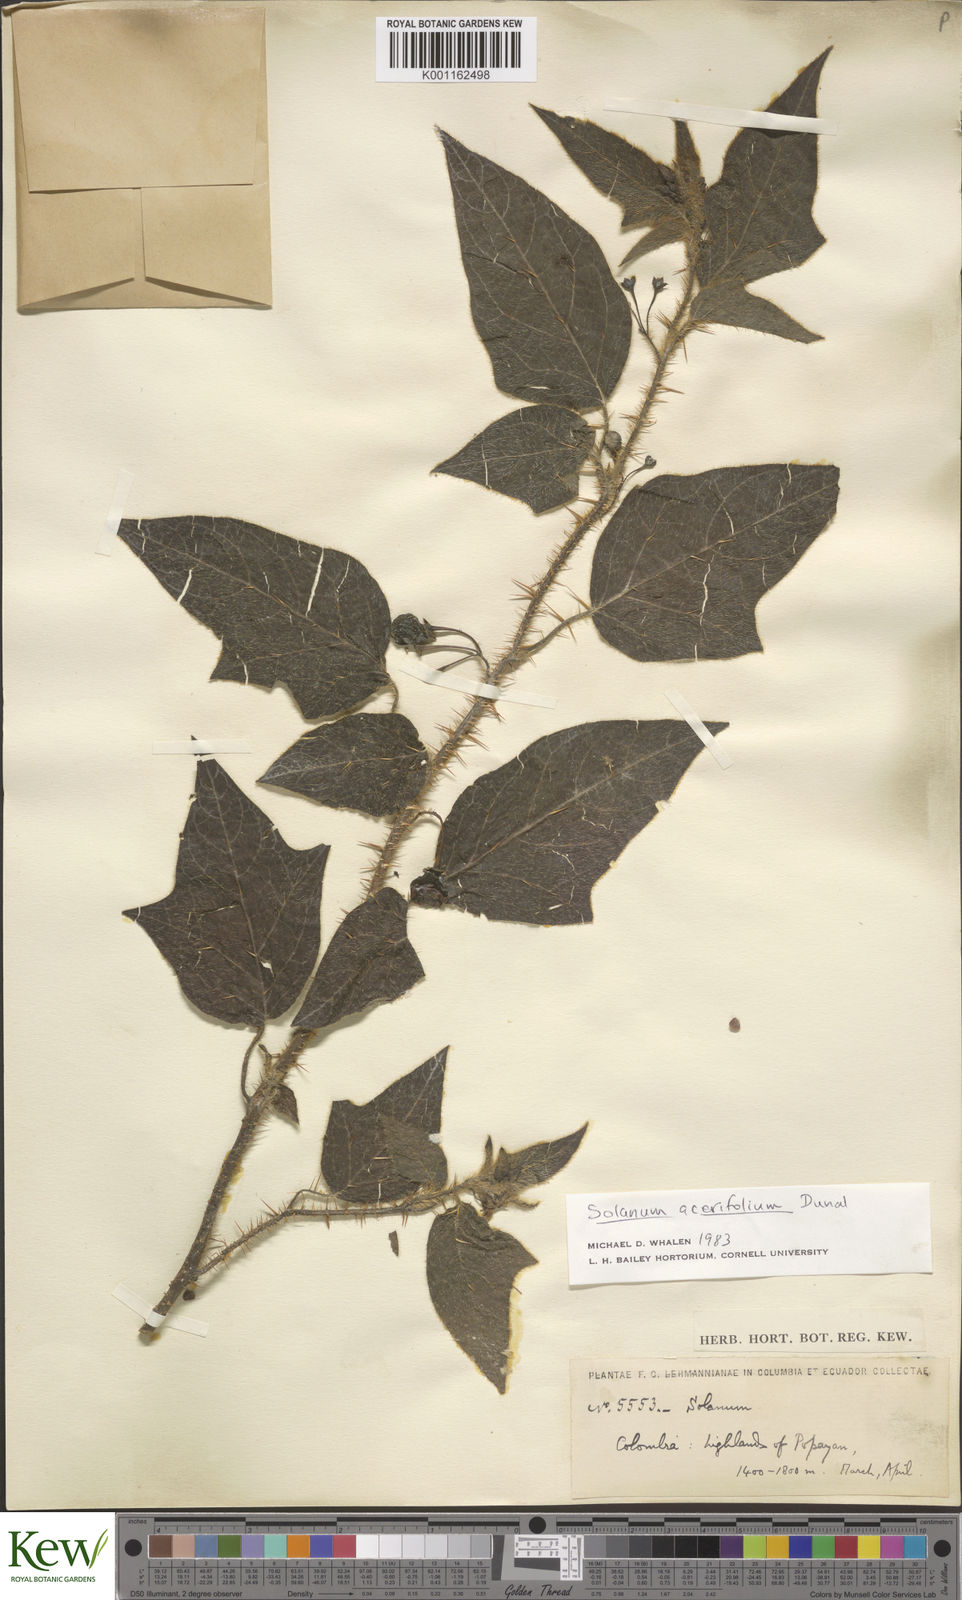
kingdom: Plantae
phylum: Tracheophyta
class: Magnoliopsida
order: Solanales
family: Solanaceae
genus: Solanum
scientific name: Solanum acerifolium
